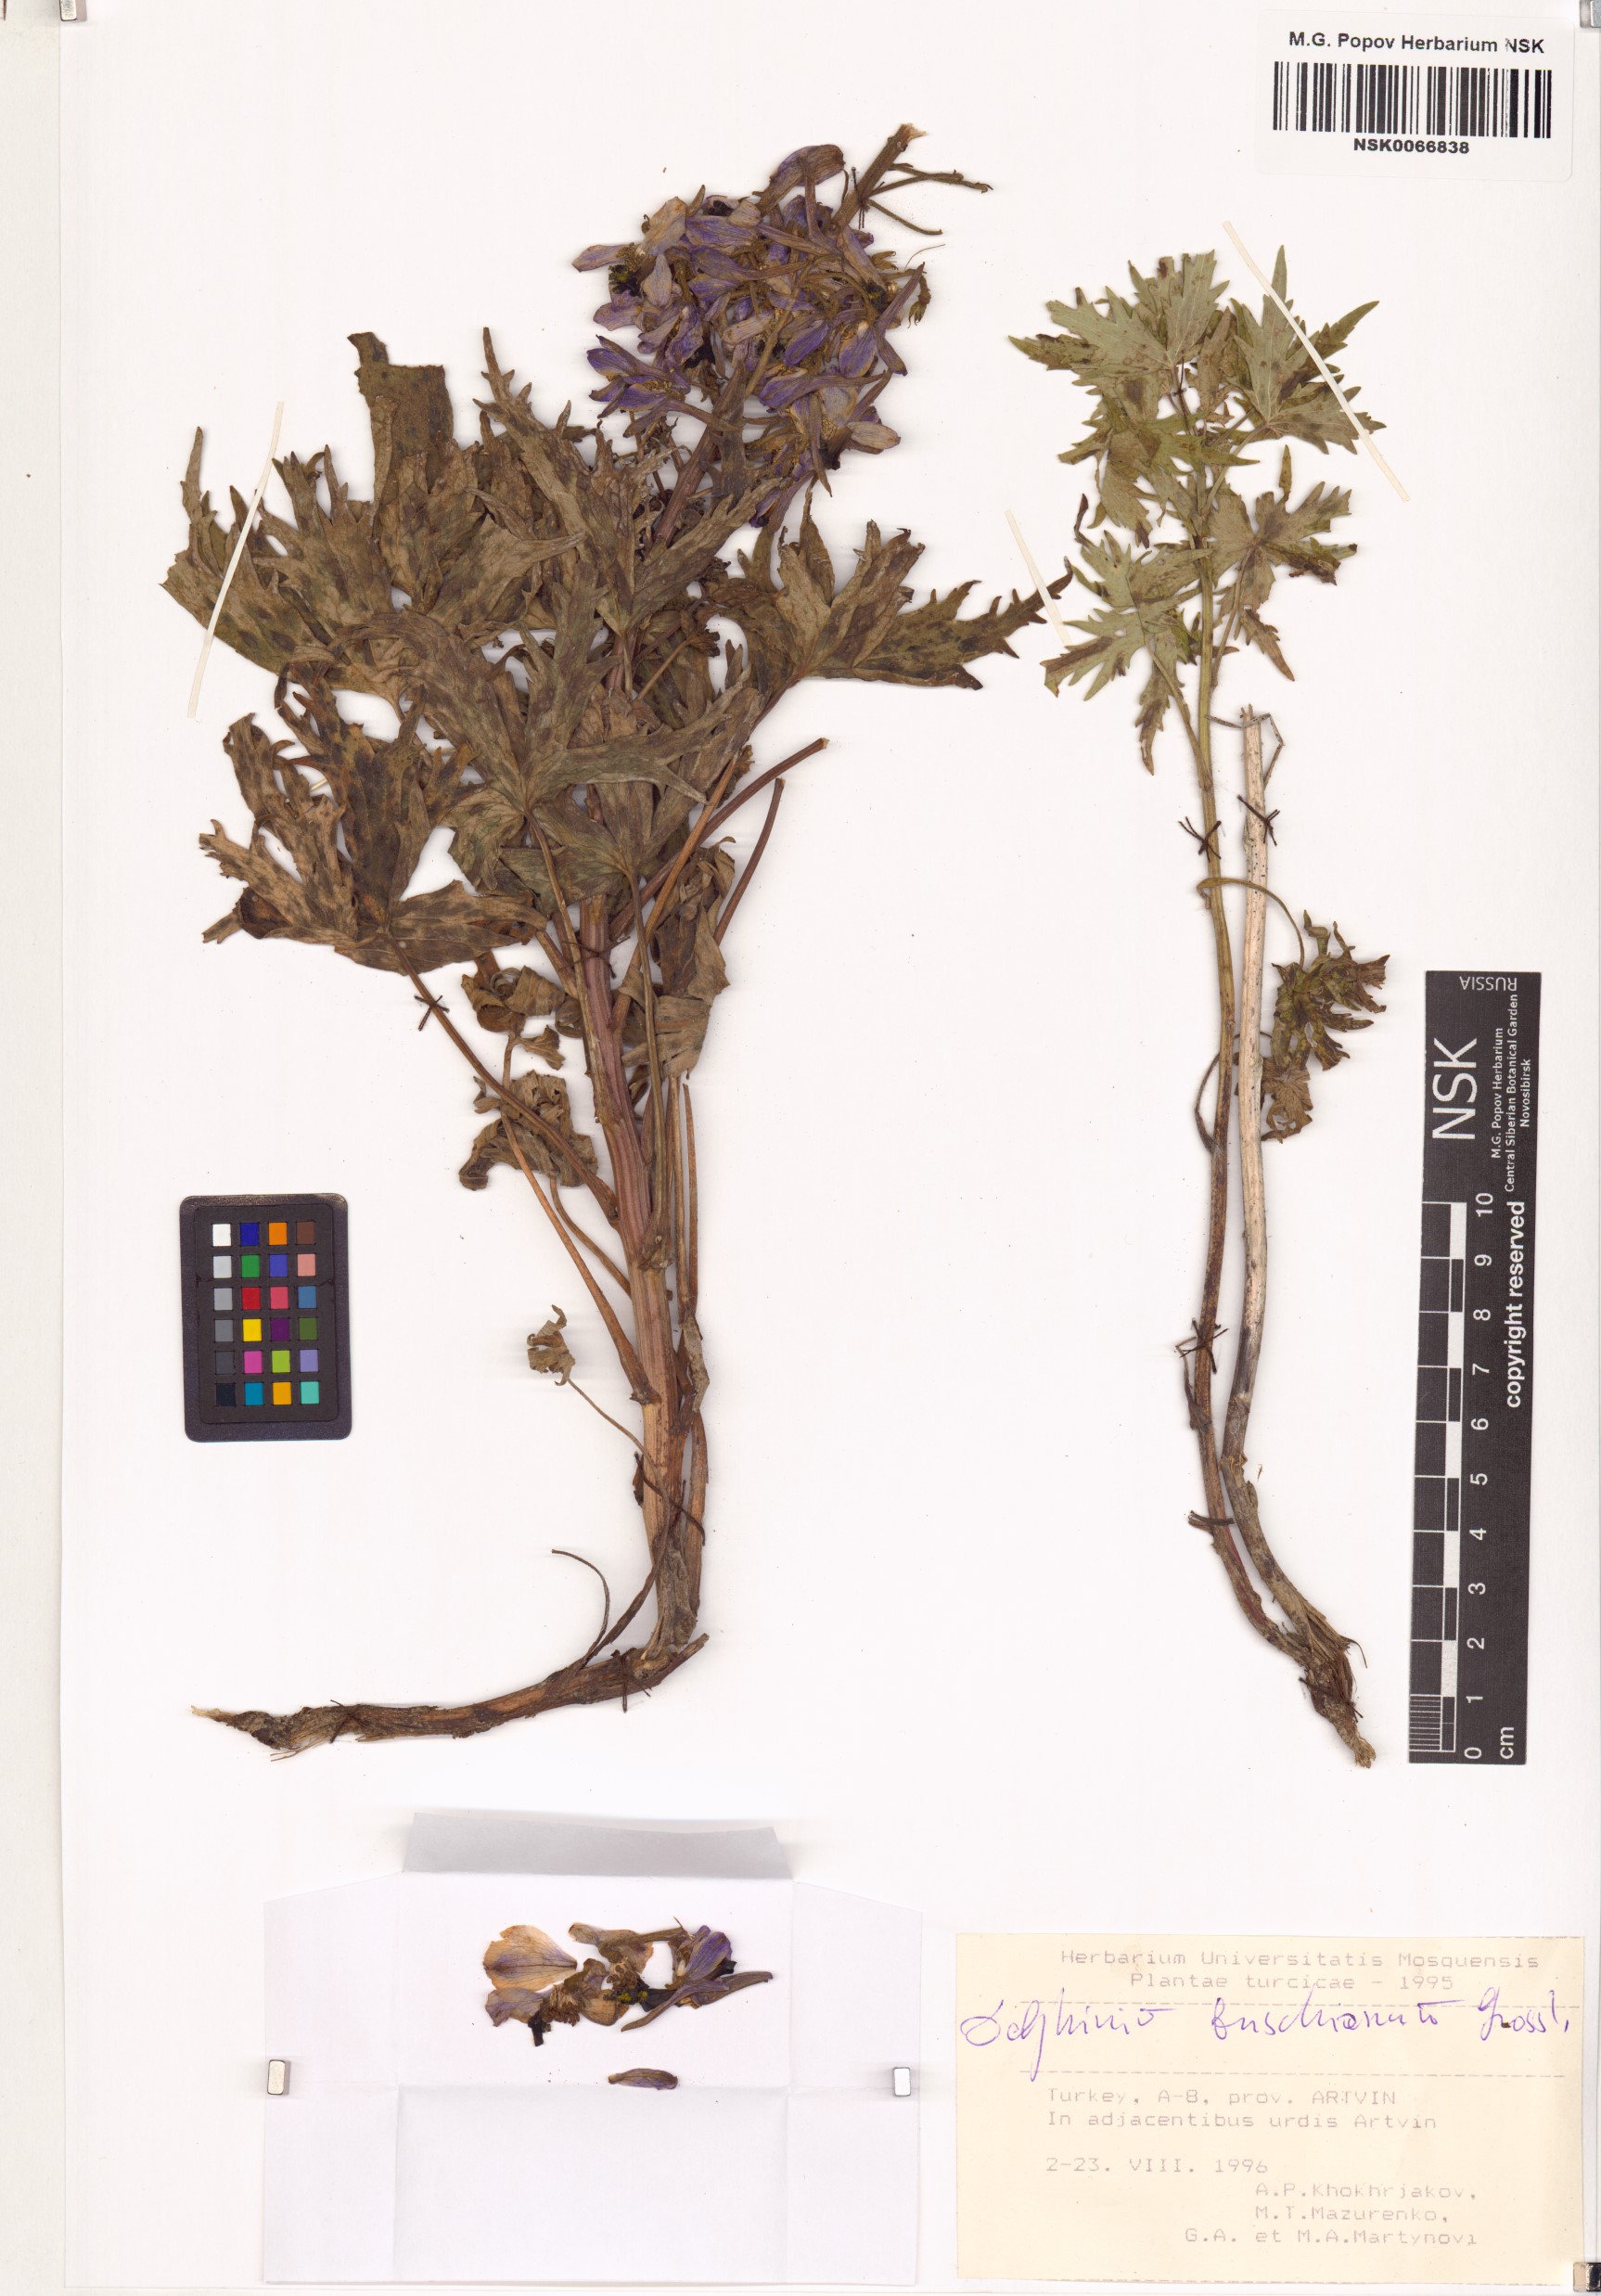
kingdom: Plantae
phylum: Tracheophyta
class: Magnoliopsida
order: Ranunculales
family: Ranunculaceae
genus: Delphinium
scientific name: Delphinium buschianum
